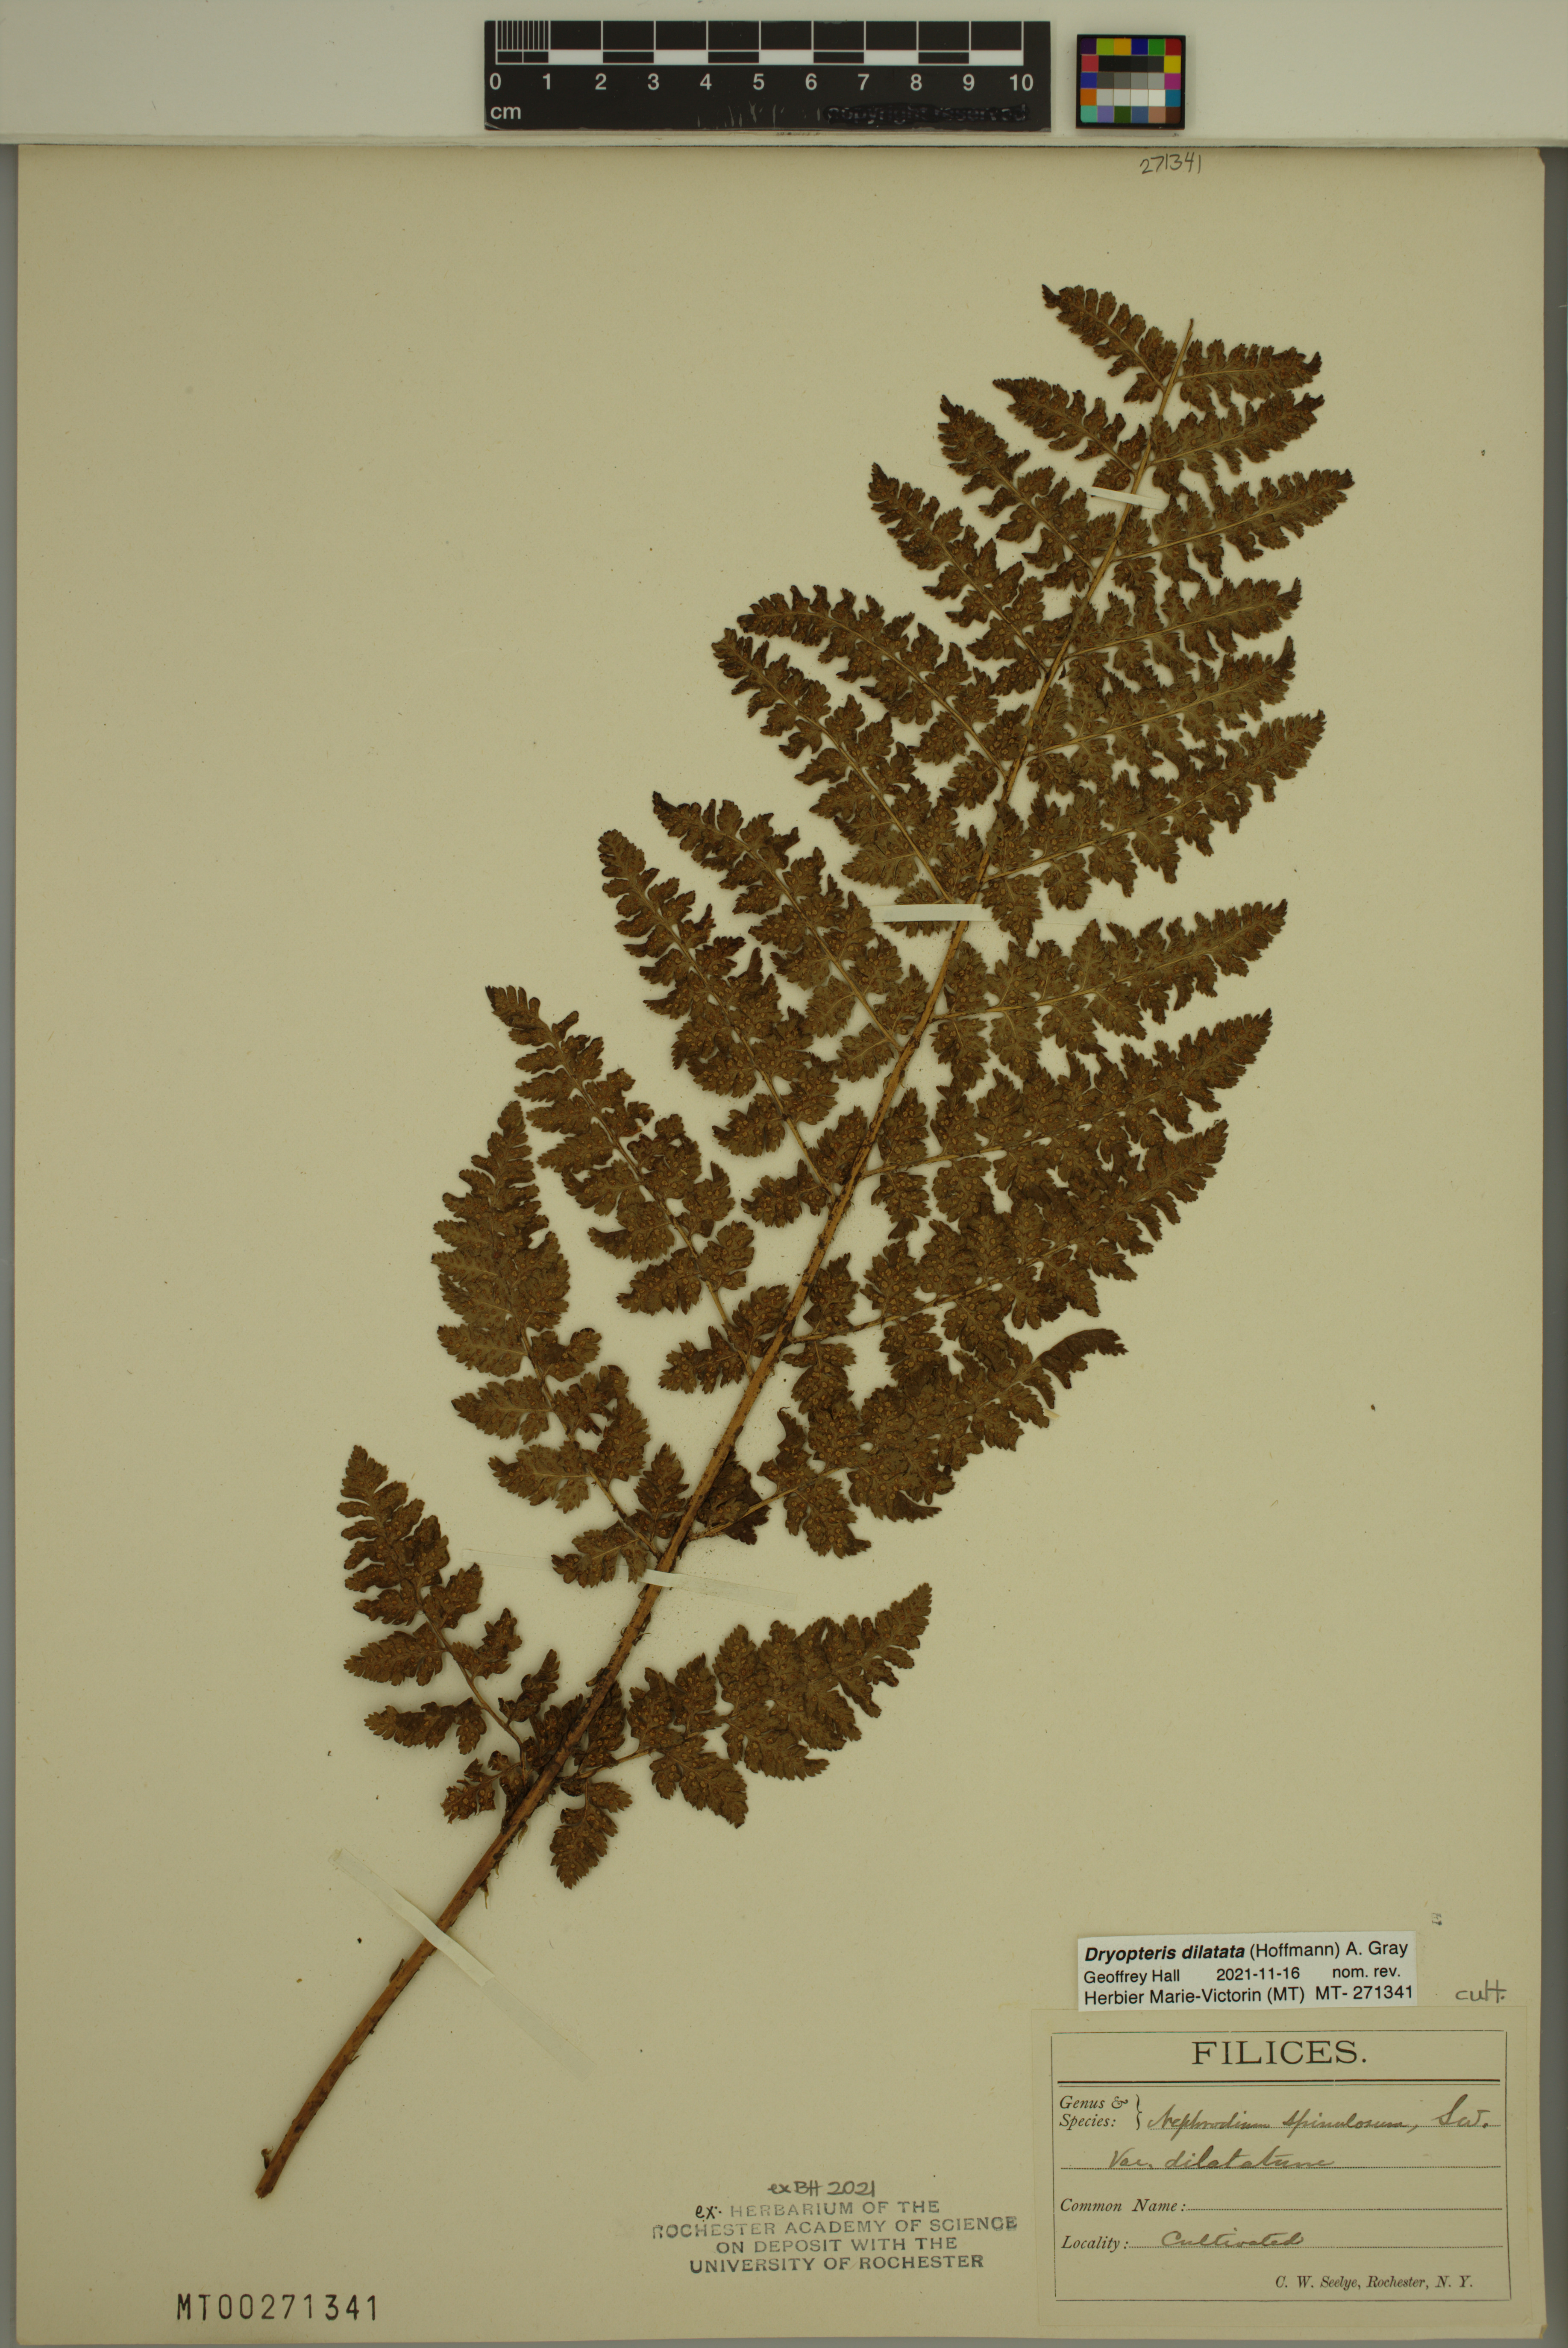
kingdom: Plantae
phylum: Tracheophyta
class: Polypodiopsida
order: Polypodiales
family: Dryopteridaceae
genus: Dryopteris
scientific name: Dryopteris dilatata
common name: Broad buckler-fern
